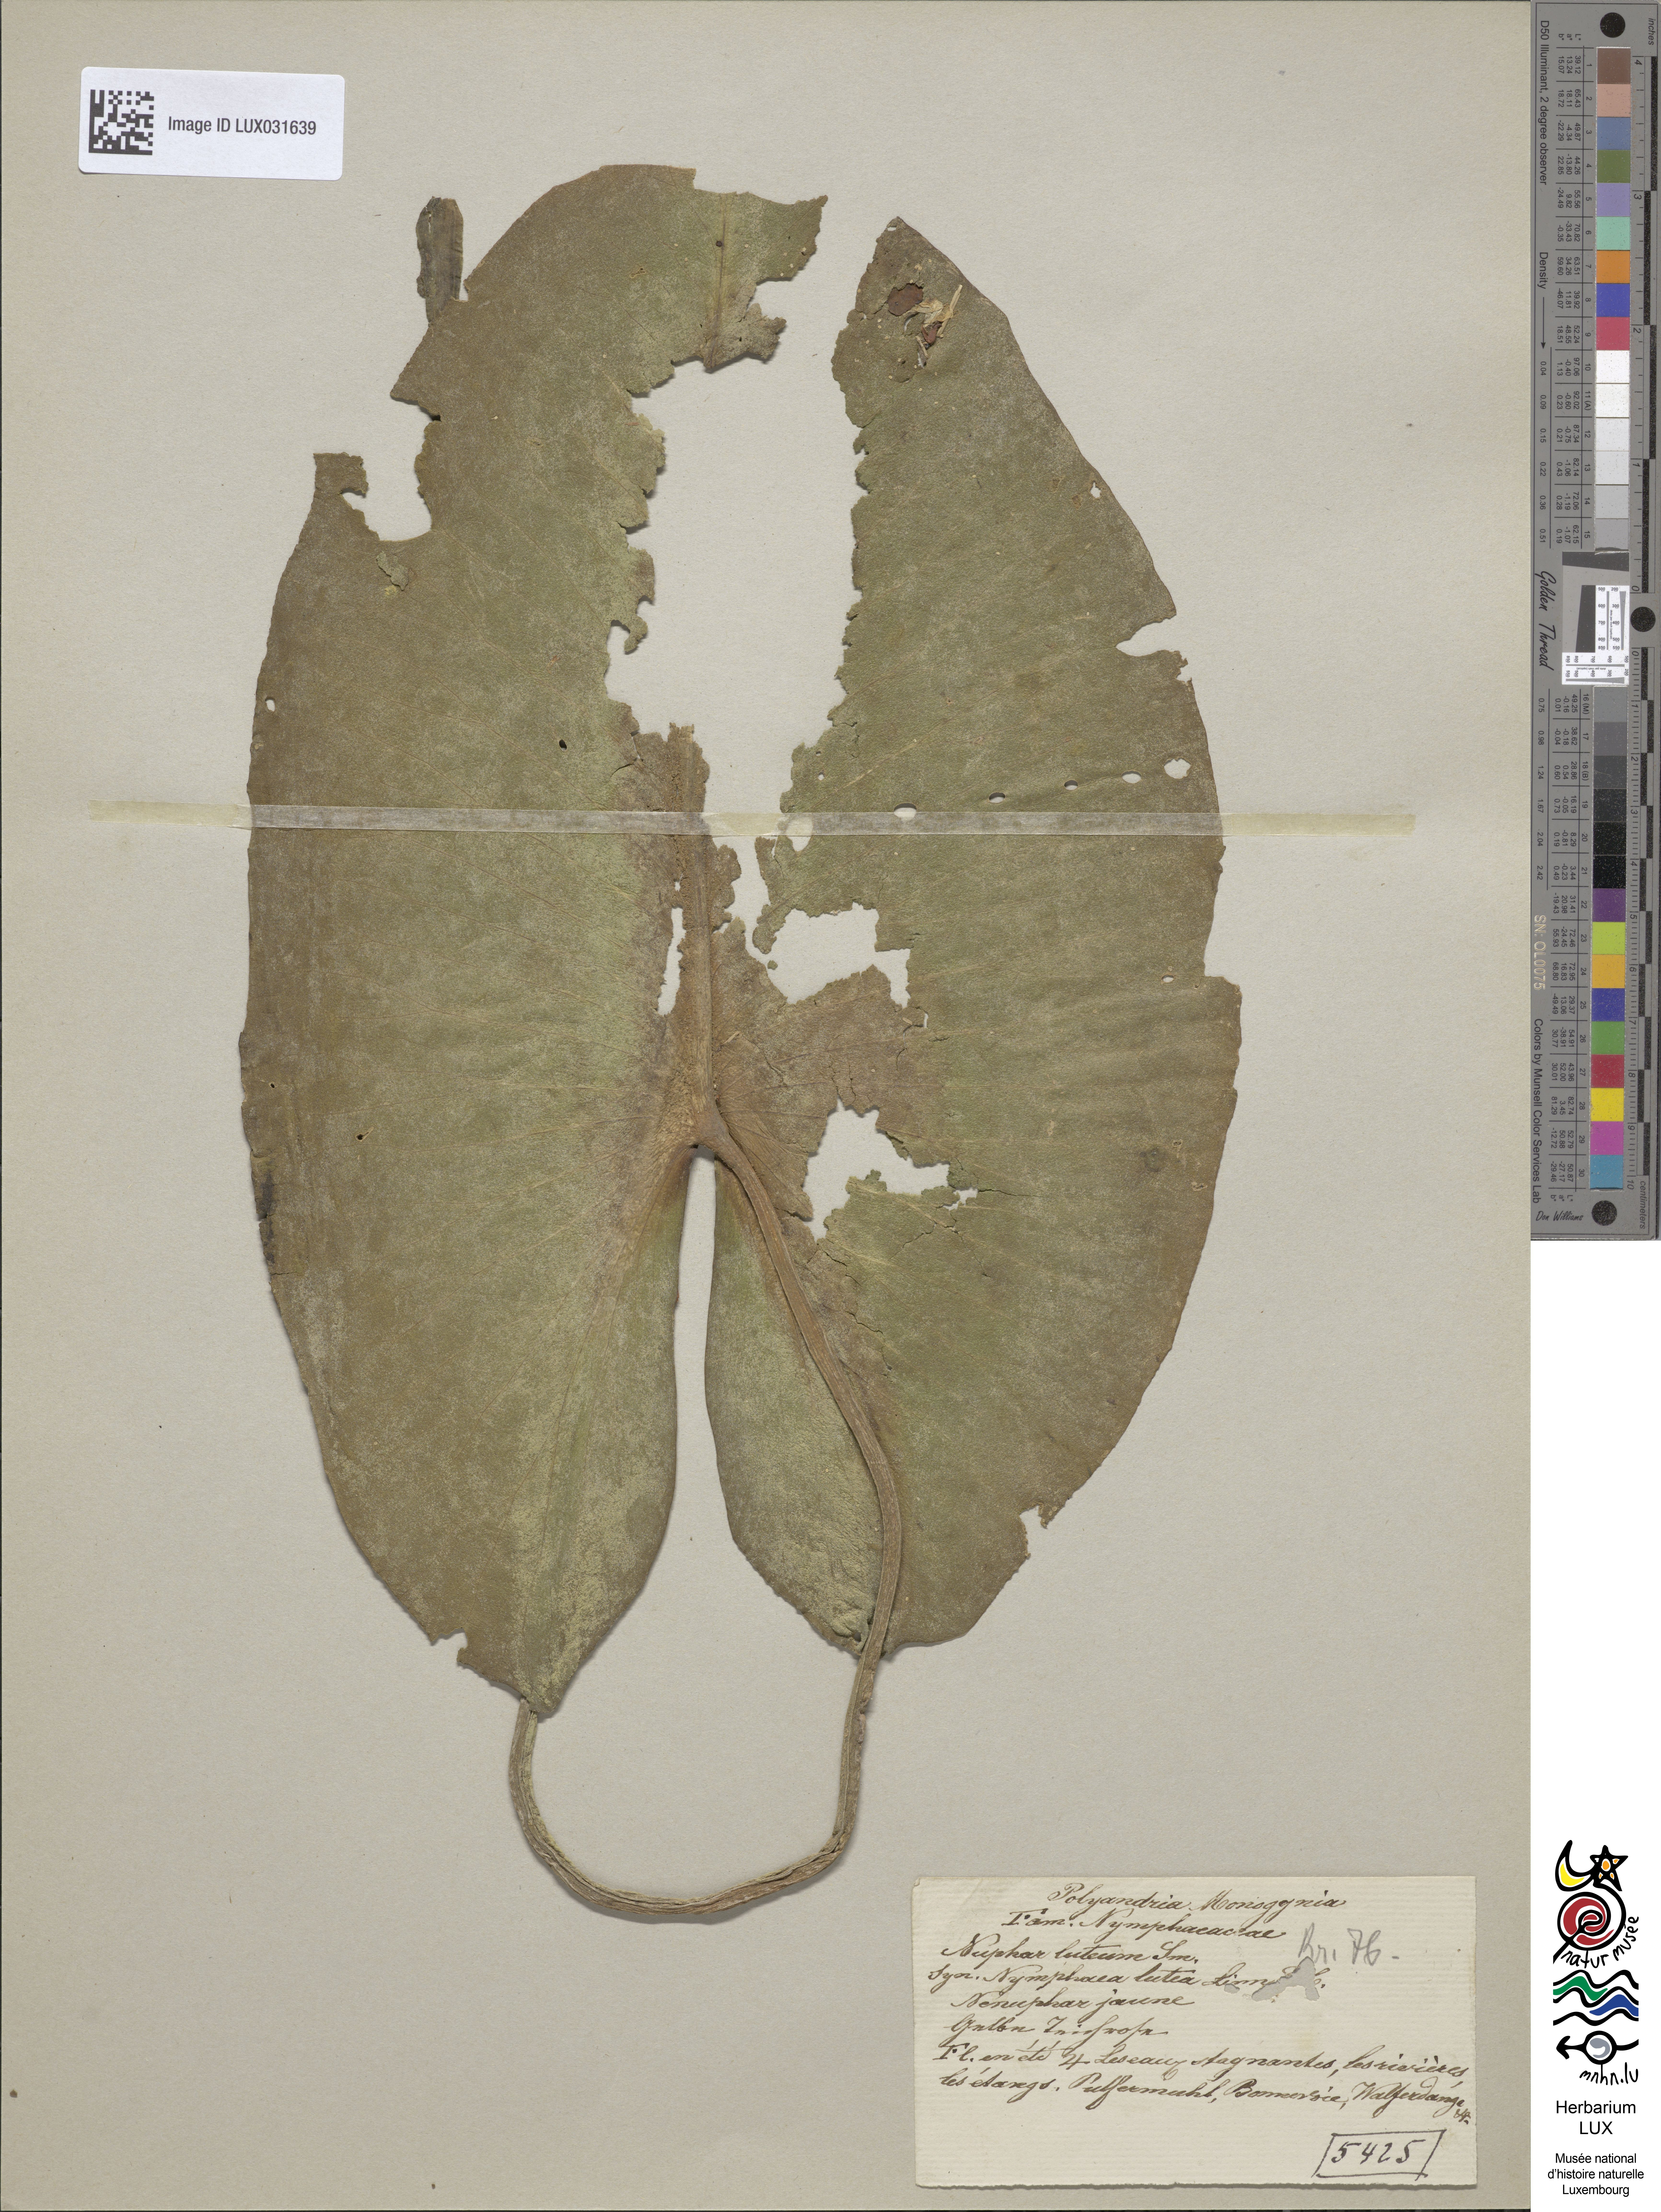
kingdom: Plantae
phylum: Tracheophyta
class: Magnoliopsida
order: Nymphaeales
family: Nymphaeaceae
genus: Nuphar
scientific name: Nuphar lutea
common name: Yellow water-lily
